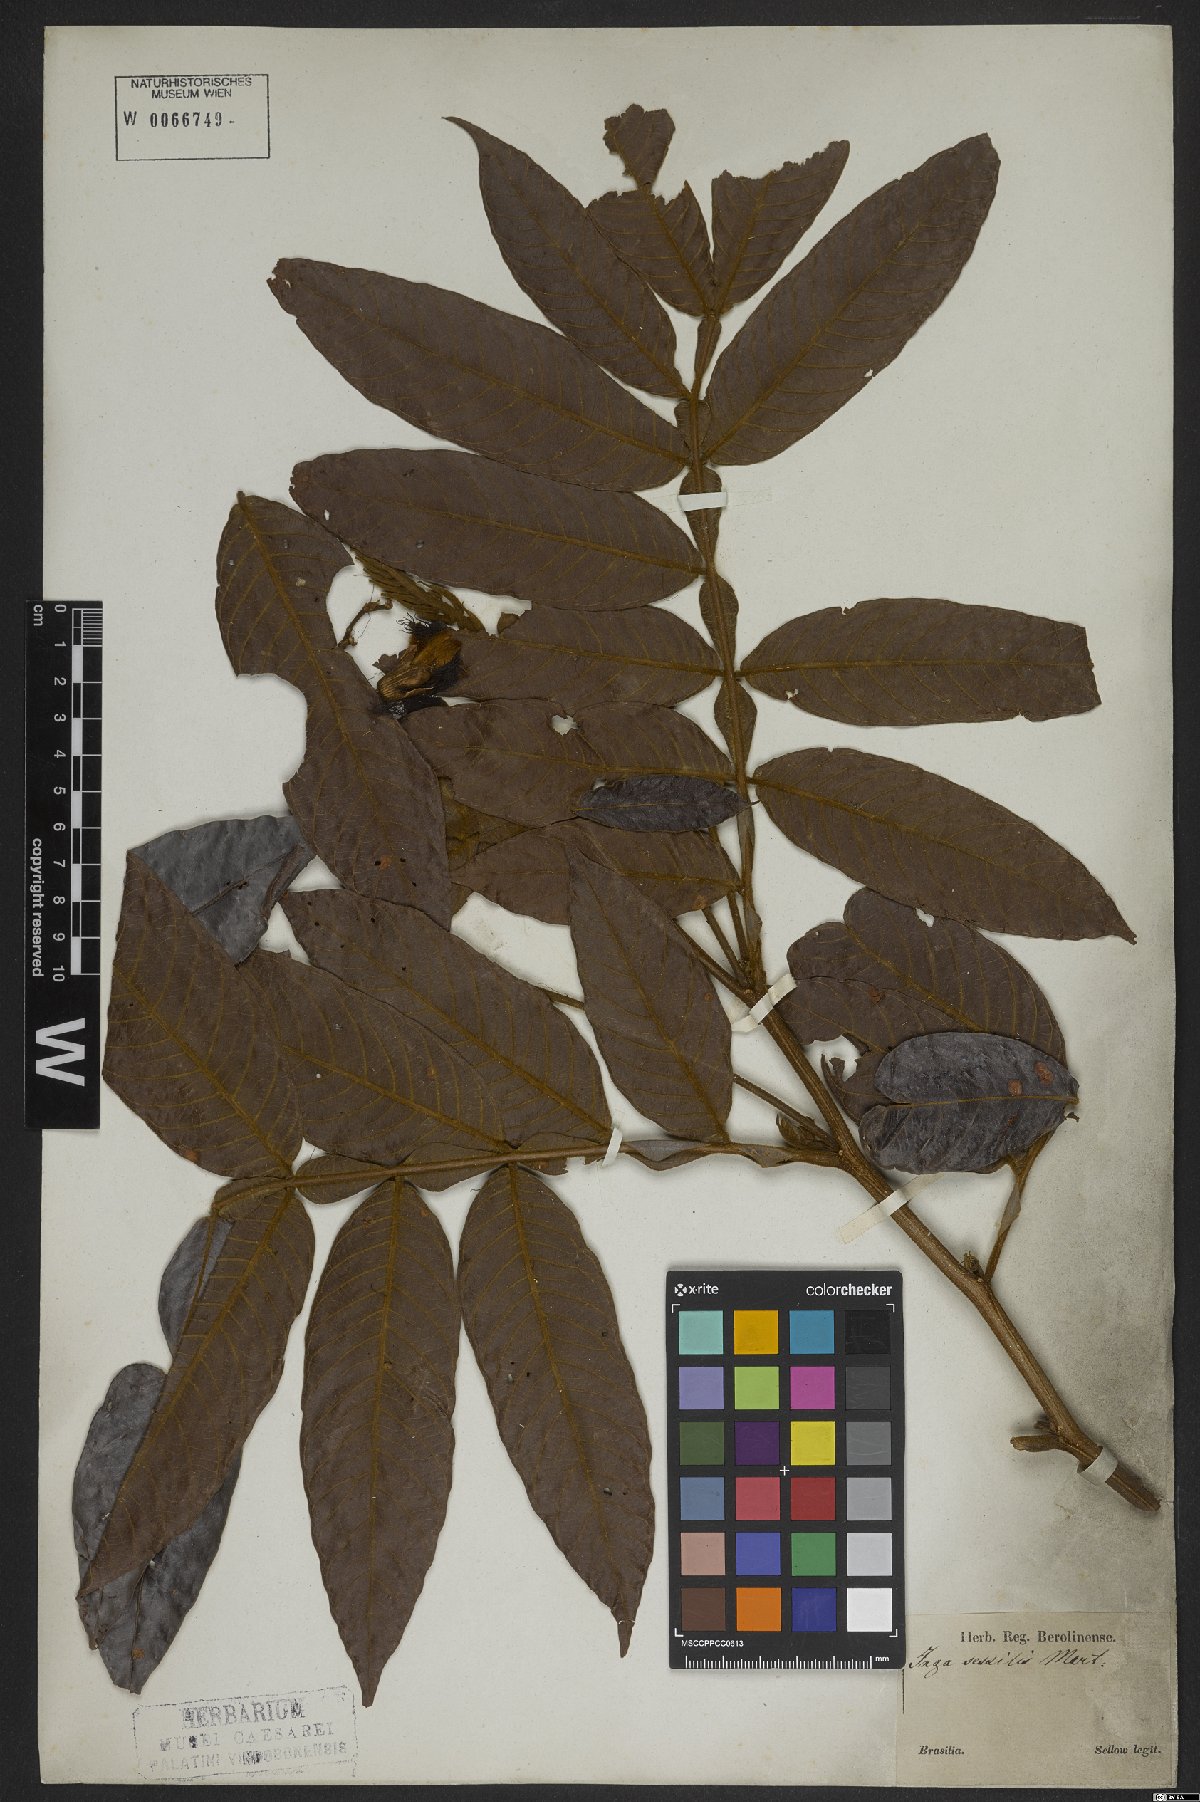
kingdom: Plantae
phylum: Tracheophyta
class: Magnoliopsida
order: Fabales
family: Fabaceae
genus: Inga
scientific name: Inga sessilis
